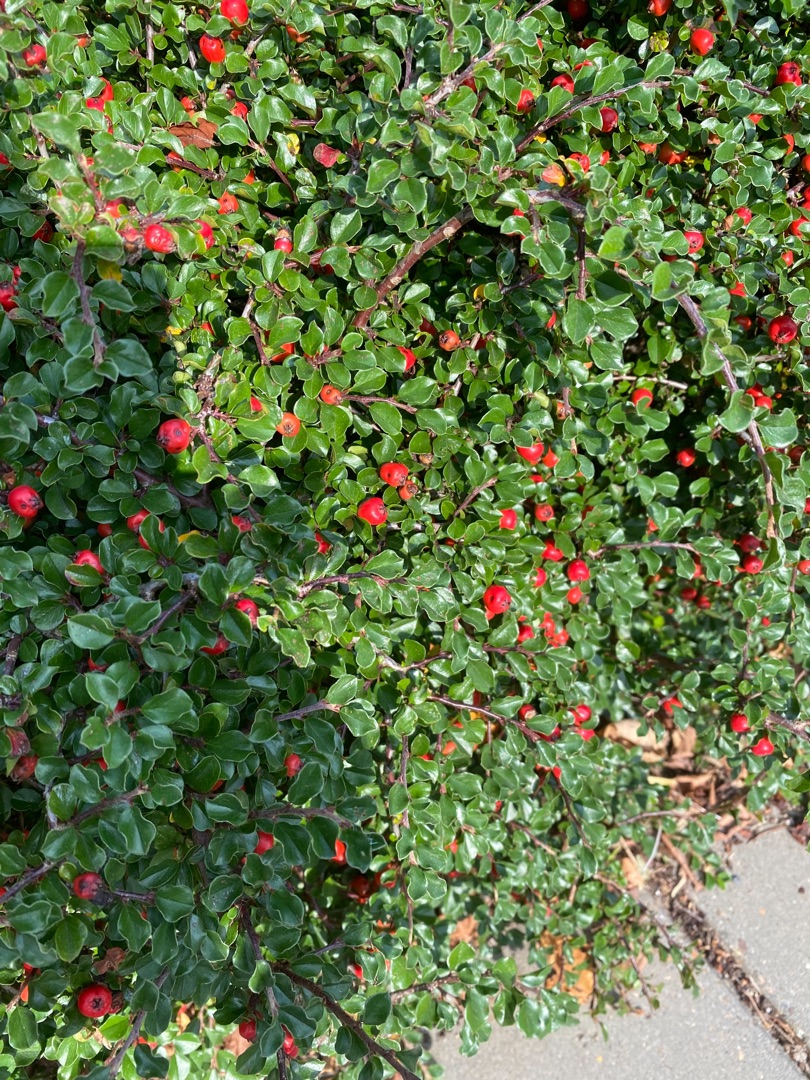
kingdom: Plantae
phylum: Tracheophyta
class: Magnoliopsida
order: Rosales
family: Rosaceae
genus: Cotoneaster
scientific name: Cotoneaster ascendens
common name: Espalier-dværgmispel
